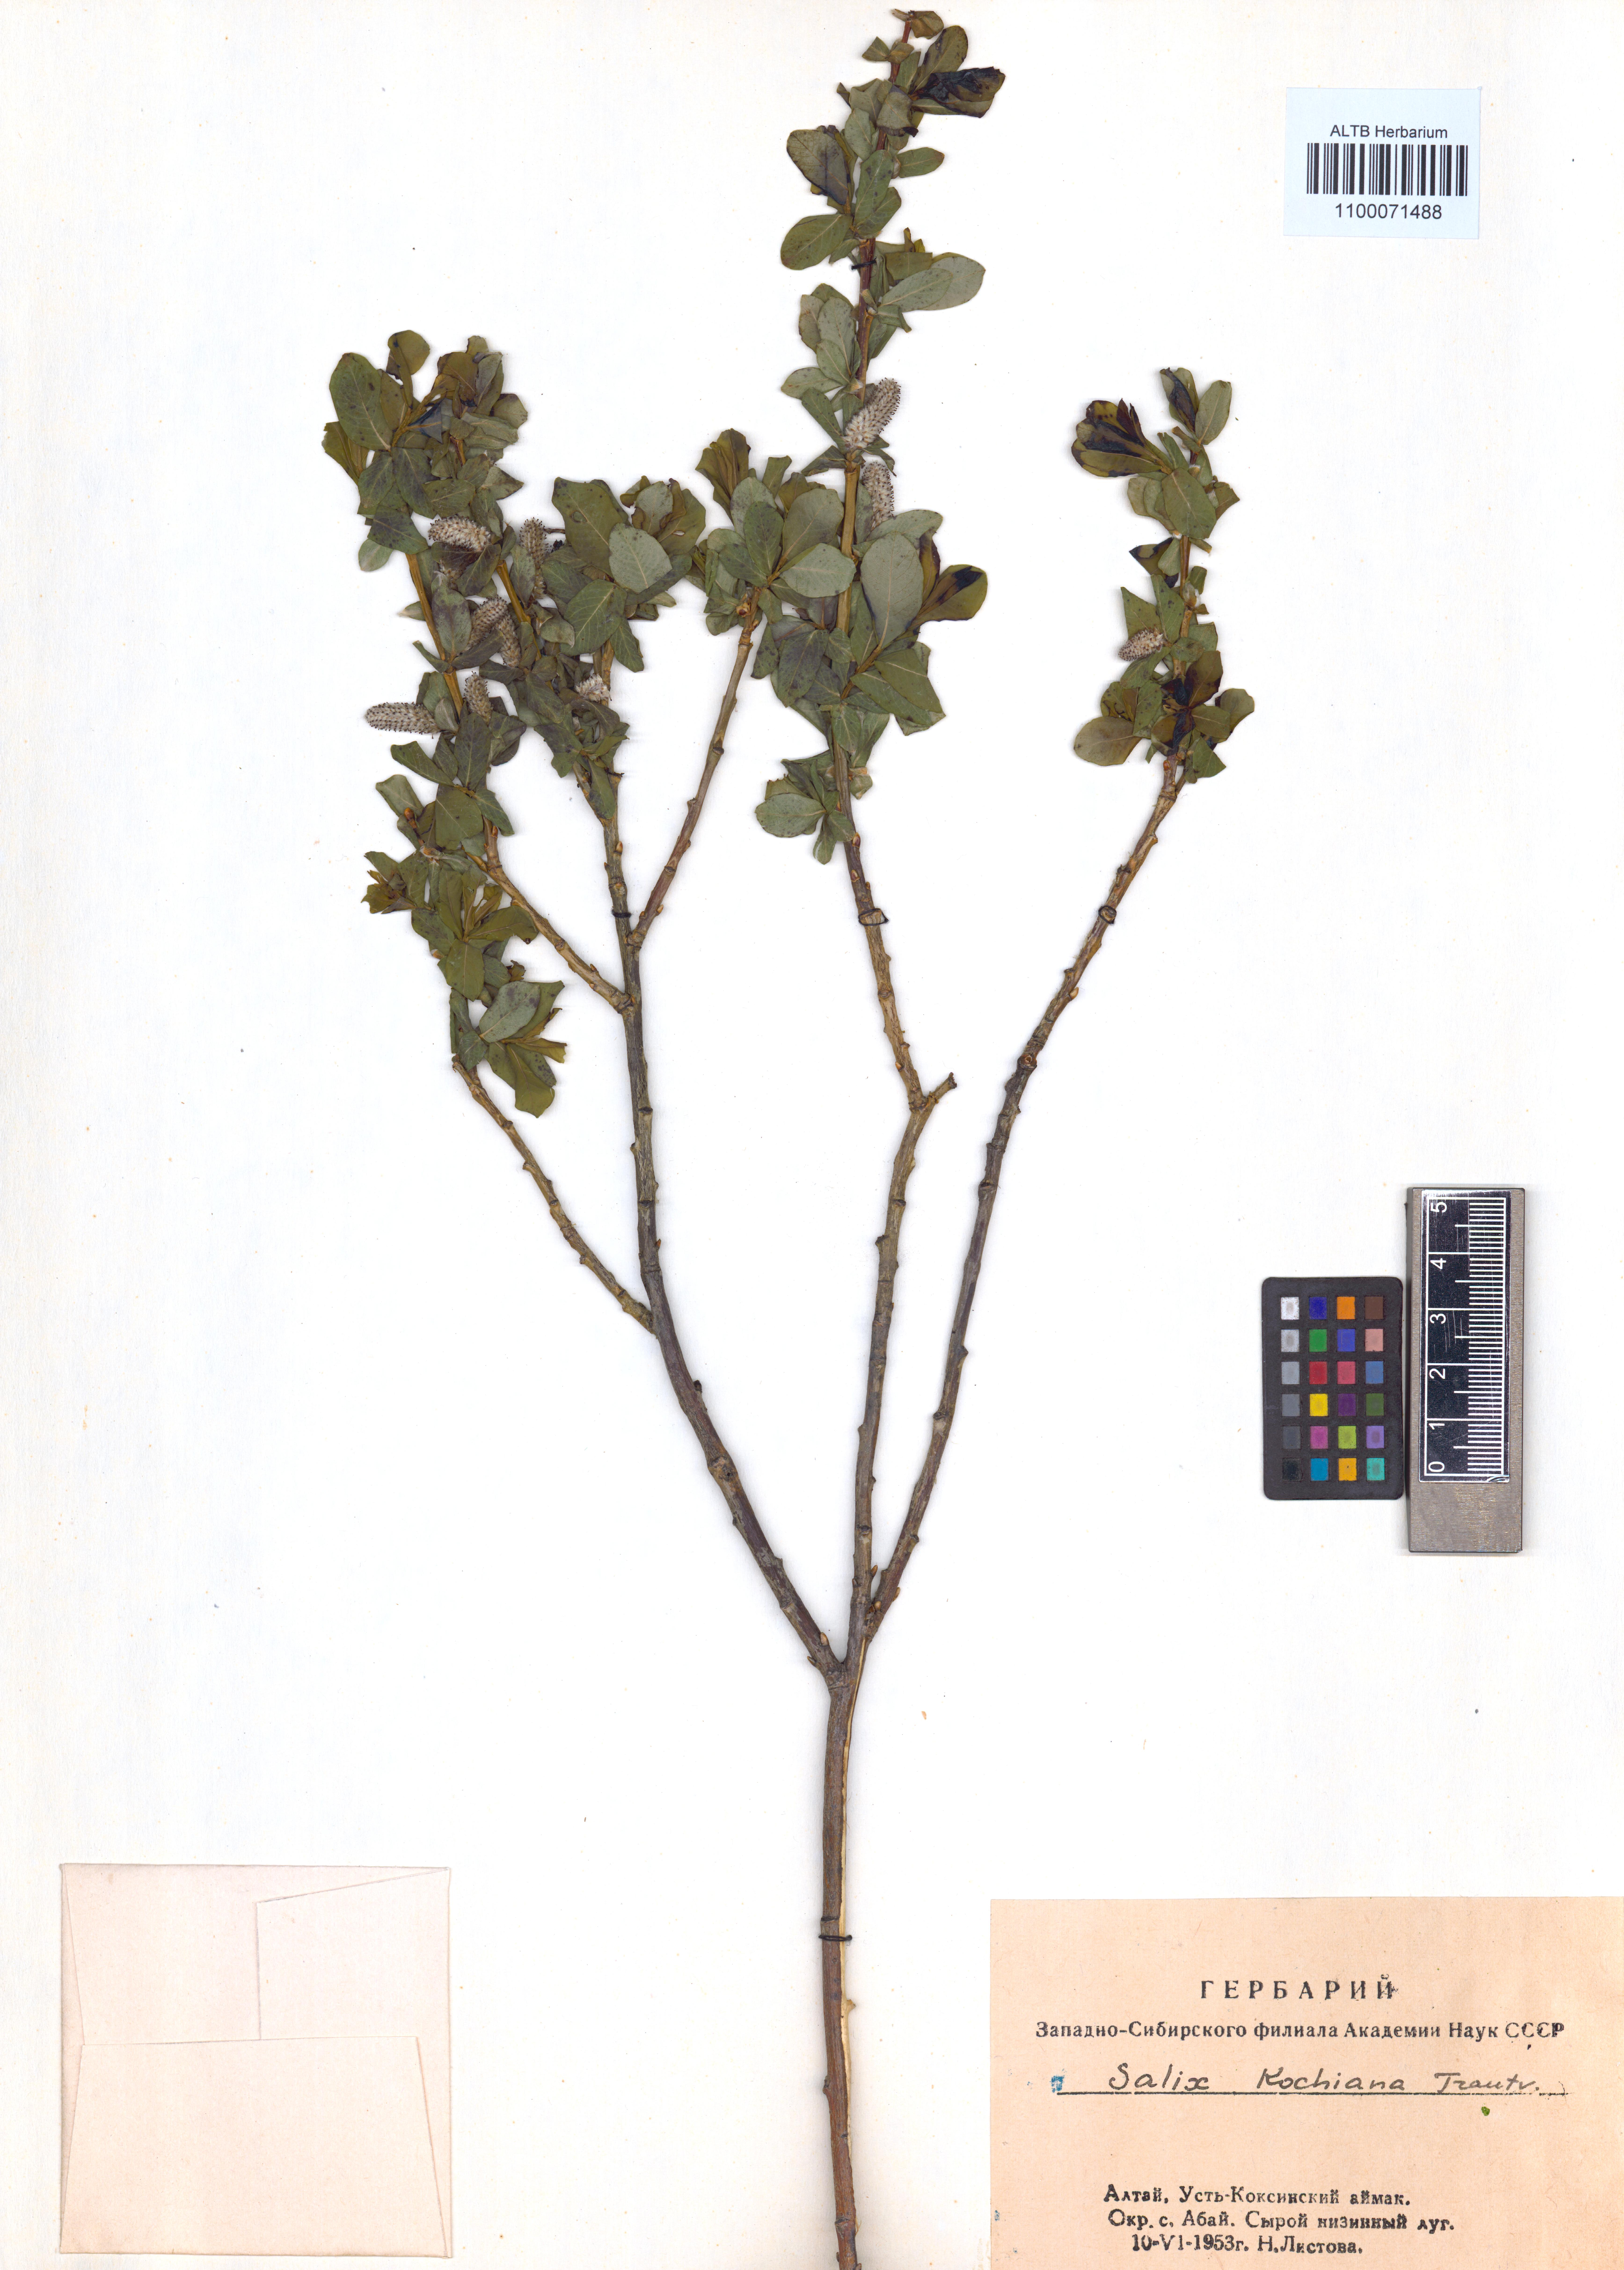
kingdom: Plantae
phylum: Tracheophyta
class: Magnoliopsida
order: Malpighiales
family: Salicaceae
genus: Salix
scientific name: Salix kochiana
